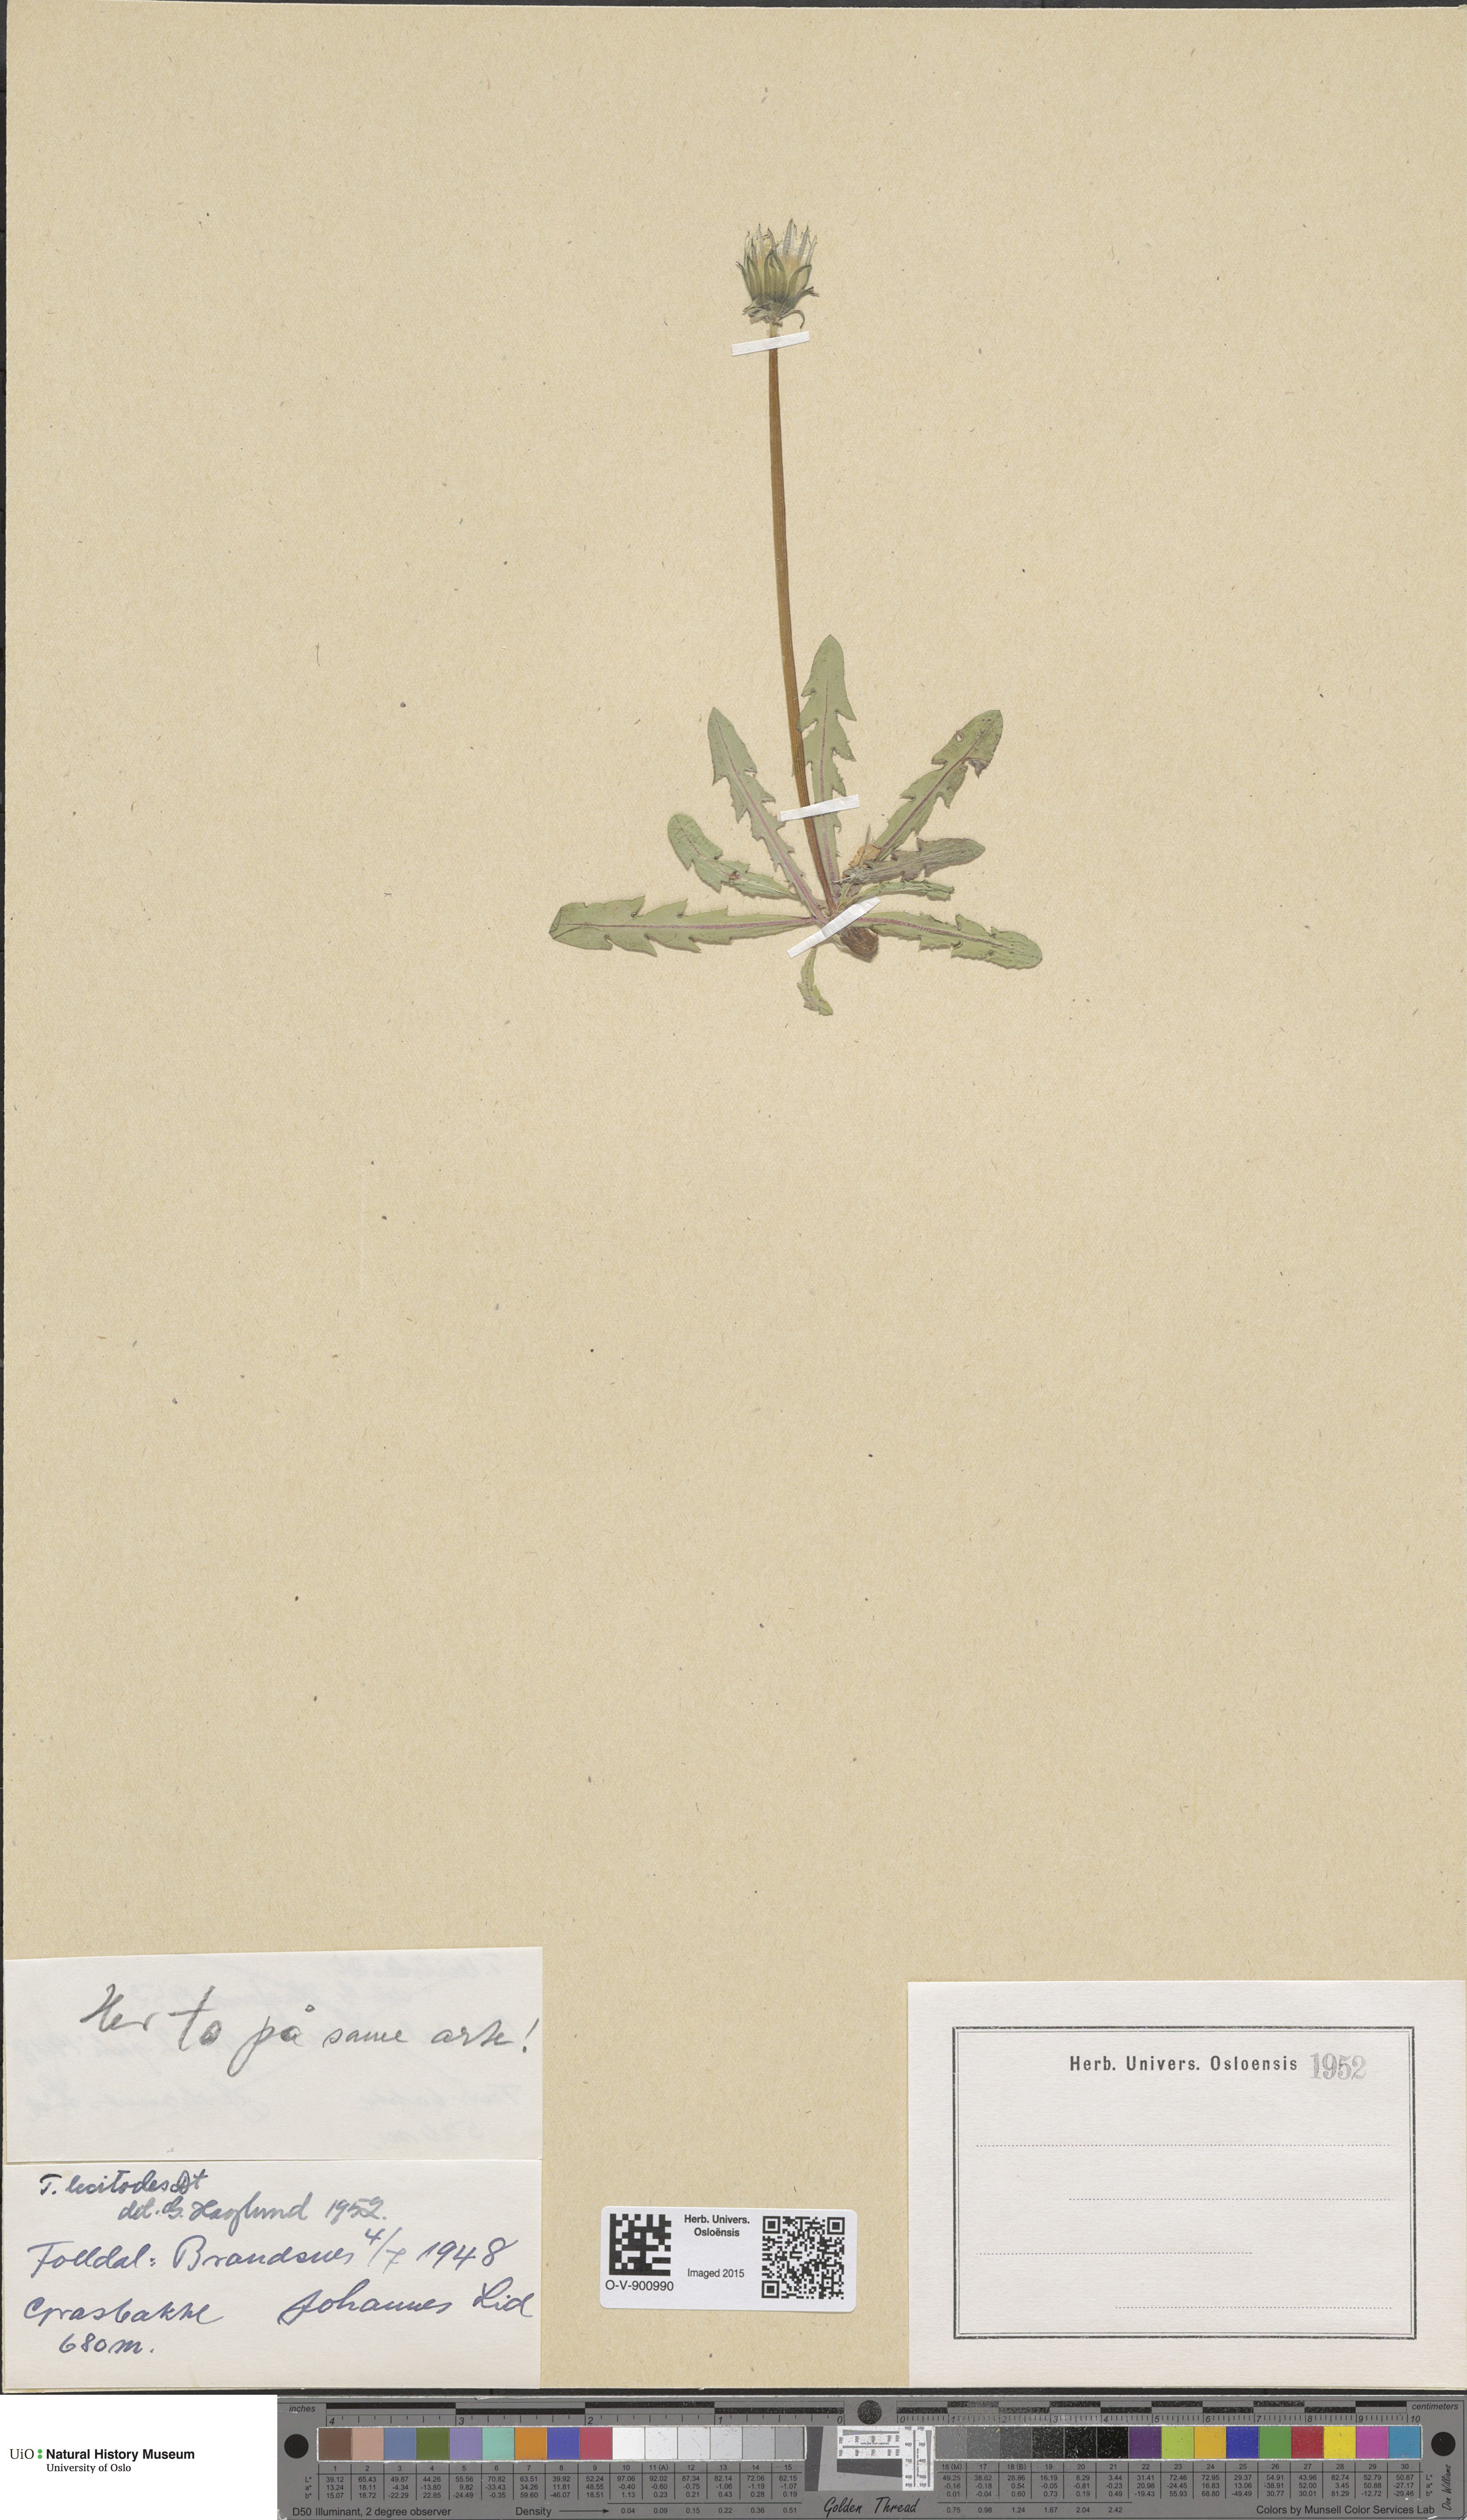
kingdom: Plantae
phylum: Tracheophyta
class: Magnoliopsida
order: Asterales
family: Asteraceae
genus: Taraxacum
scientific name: Taraxacum lecitodes
